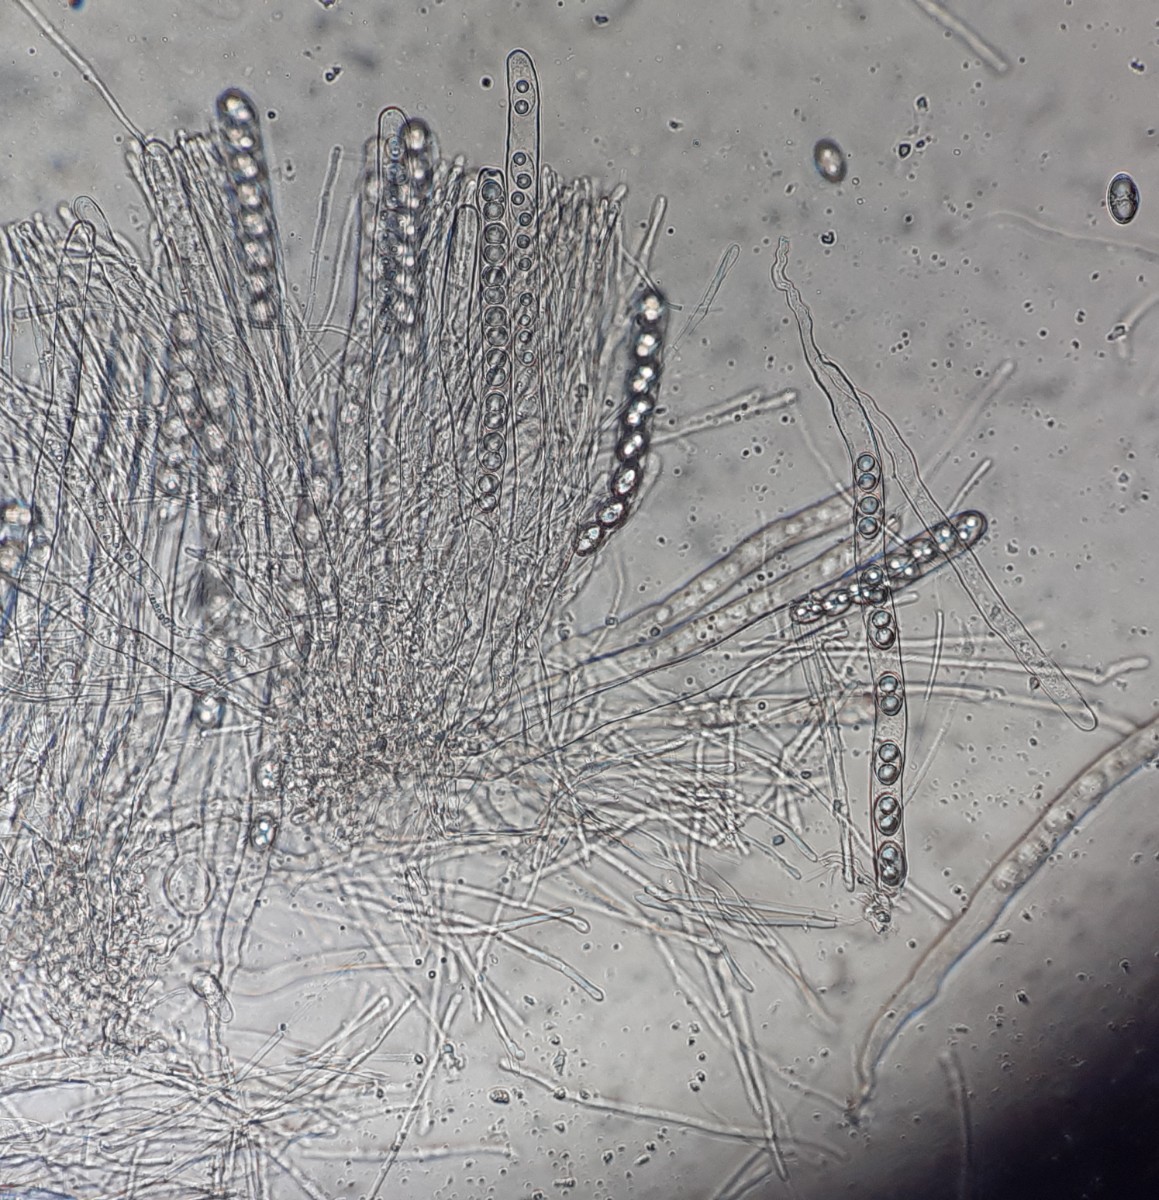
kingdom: Fungi
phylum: Ascomycota
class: Pezizomycetes
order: Pezizales
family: Pyronemataceae
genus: Tarzetta
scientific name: Tarzetta
